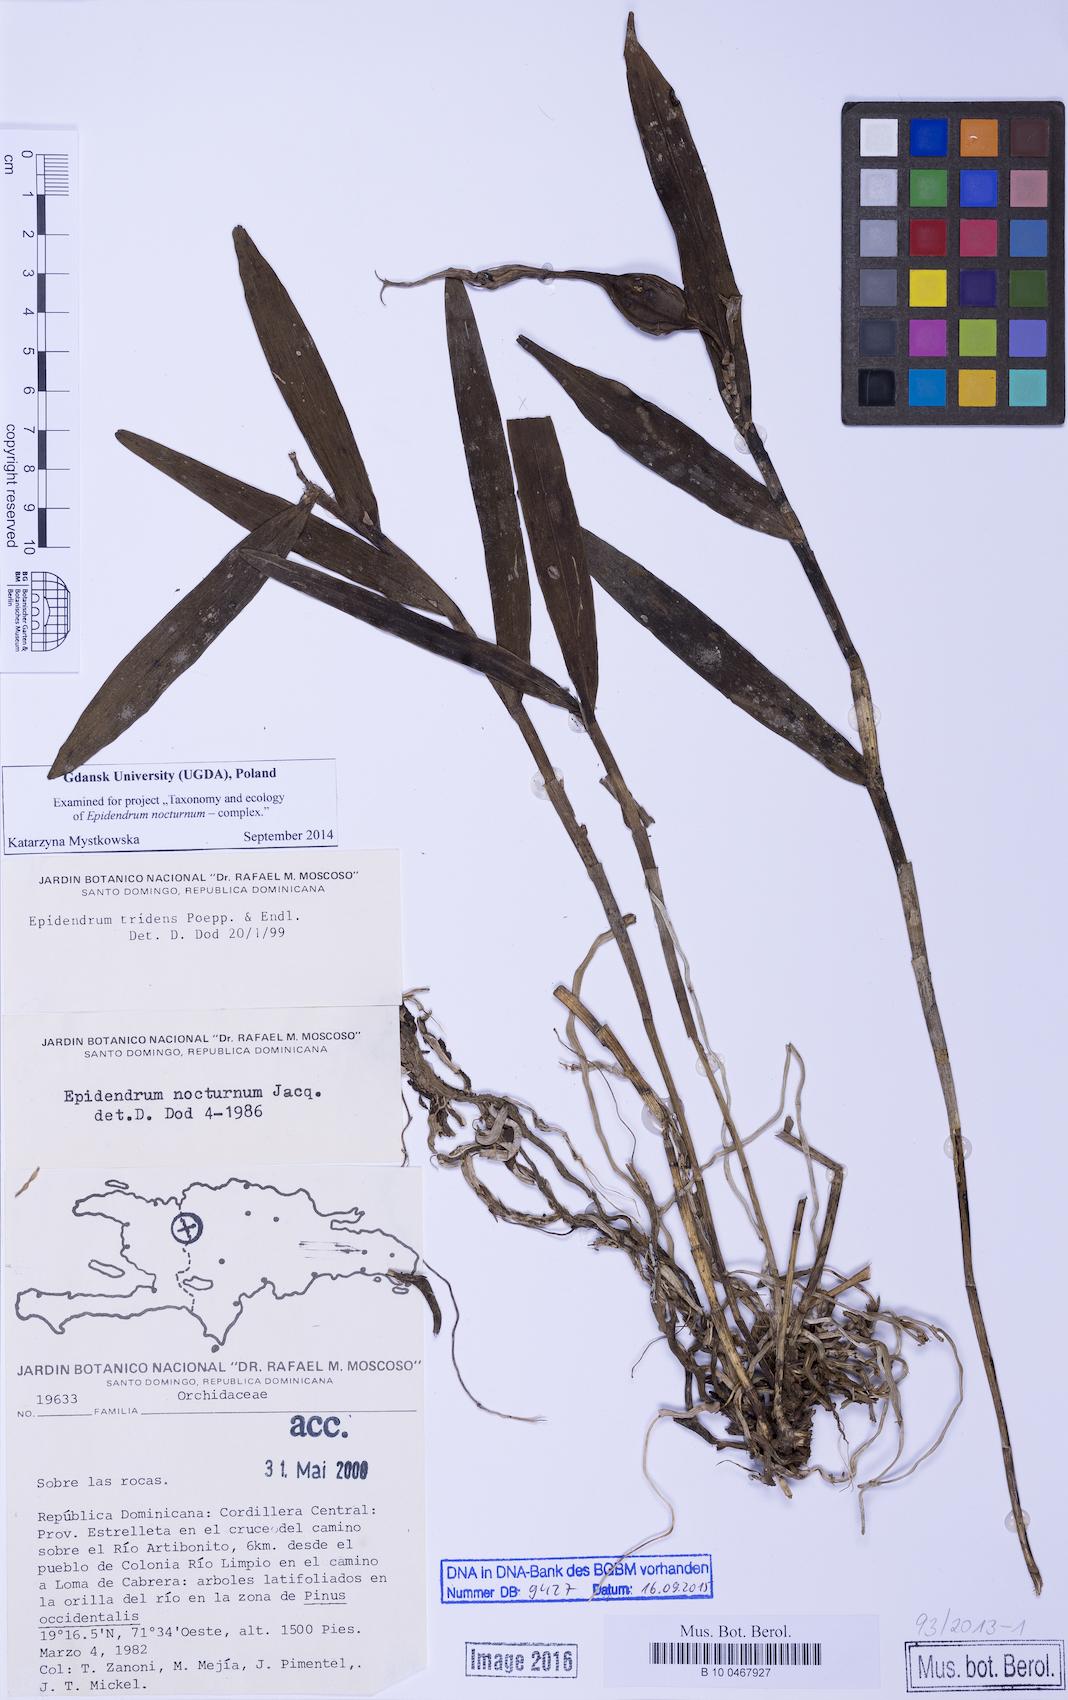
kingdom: Plantae
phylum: Tracheophyta
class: Liliopsida
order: Asparagales
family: Orchidaceae
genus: Epidendrum
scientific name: Epidendrum nocturnum
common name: Night scented orchid
